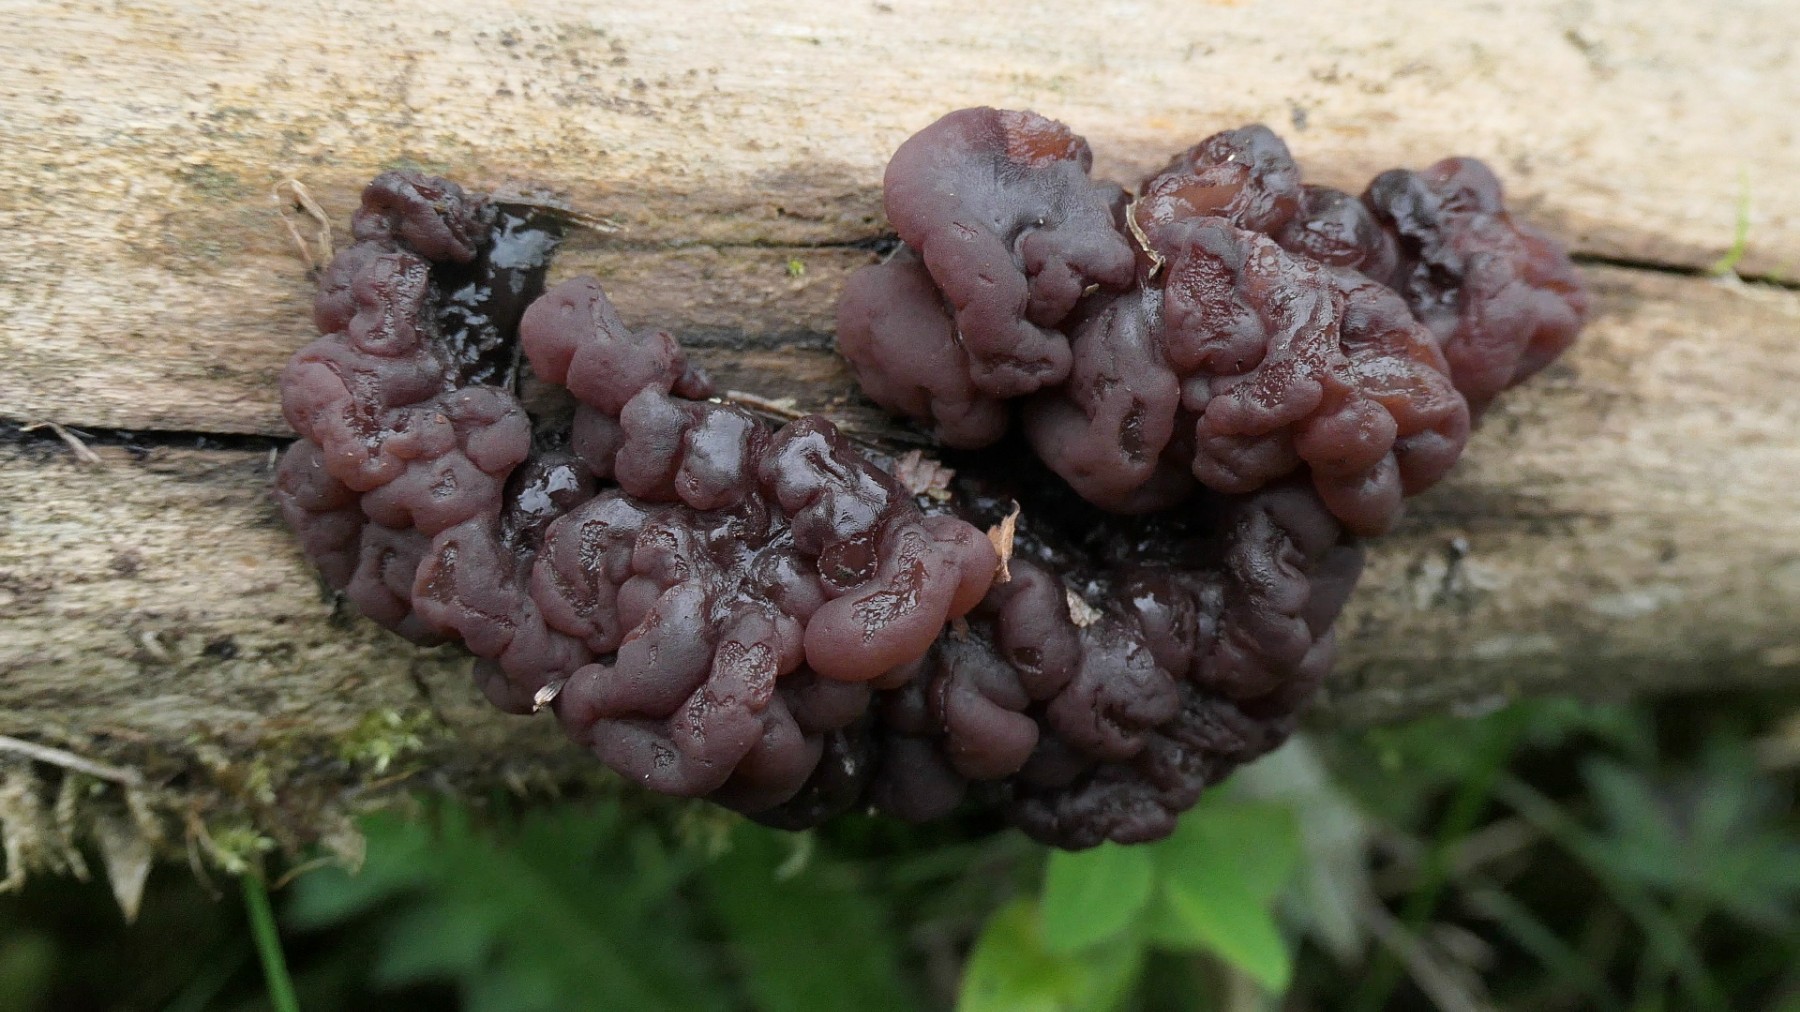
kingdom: Fungi
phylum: Ascomycota
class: Leotiomycetes
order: Helotiales
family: Gelatinodiscaceae
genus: Ascotremella
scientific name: Ascotremella faginea
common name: hjerne-bævreskive
